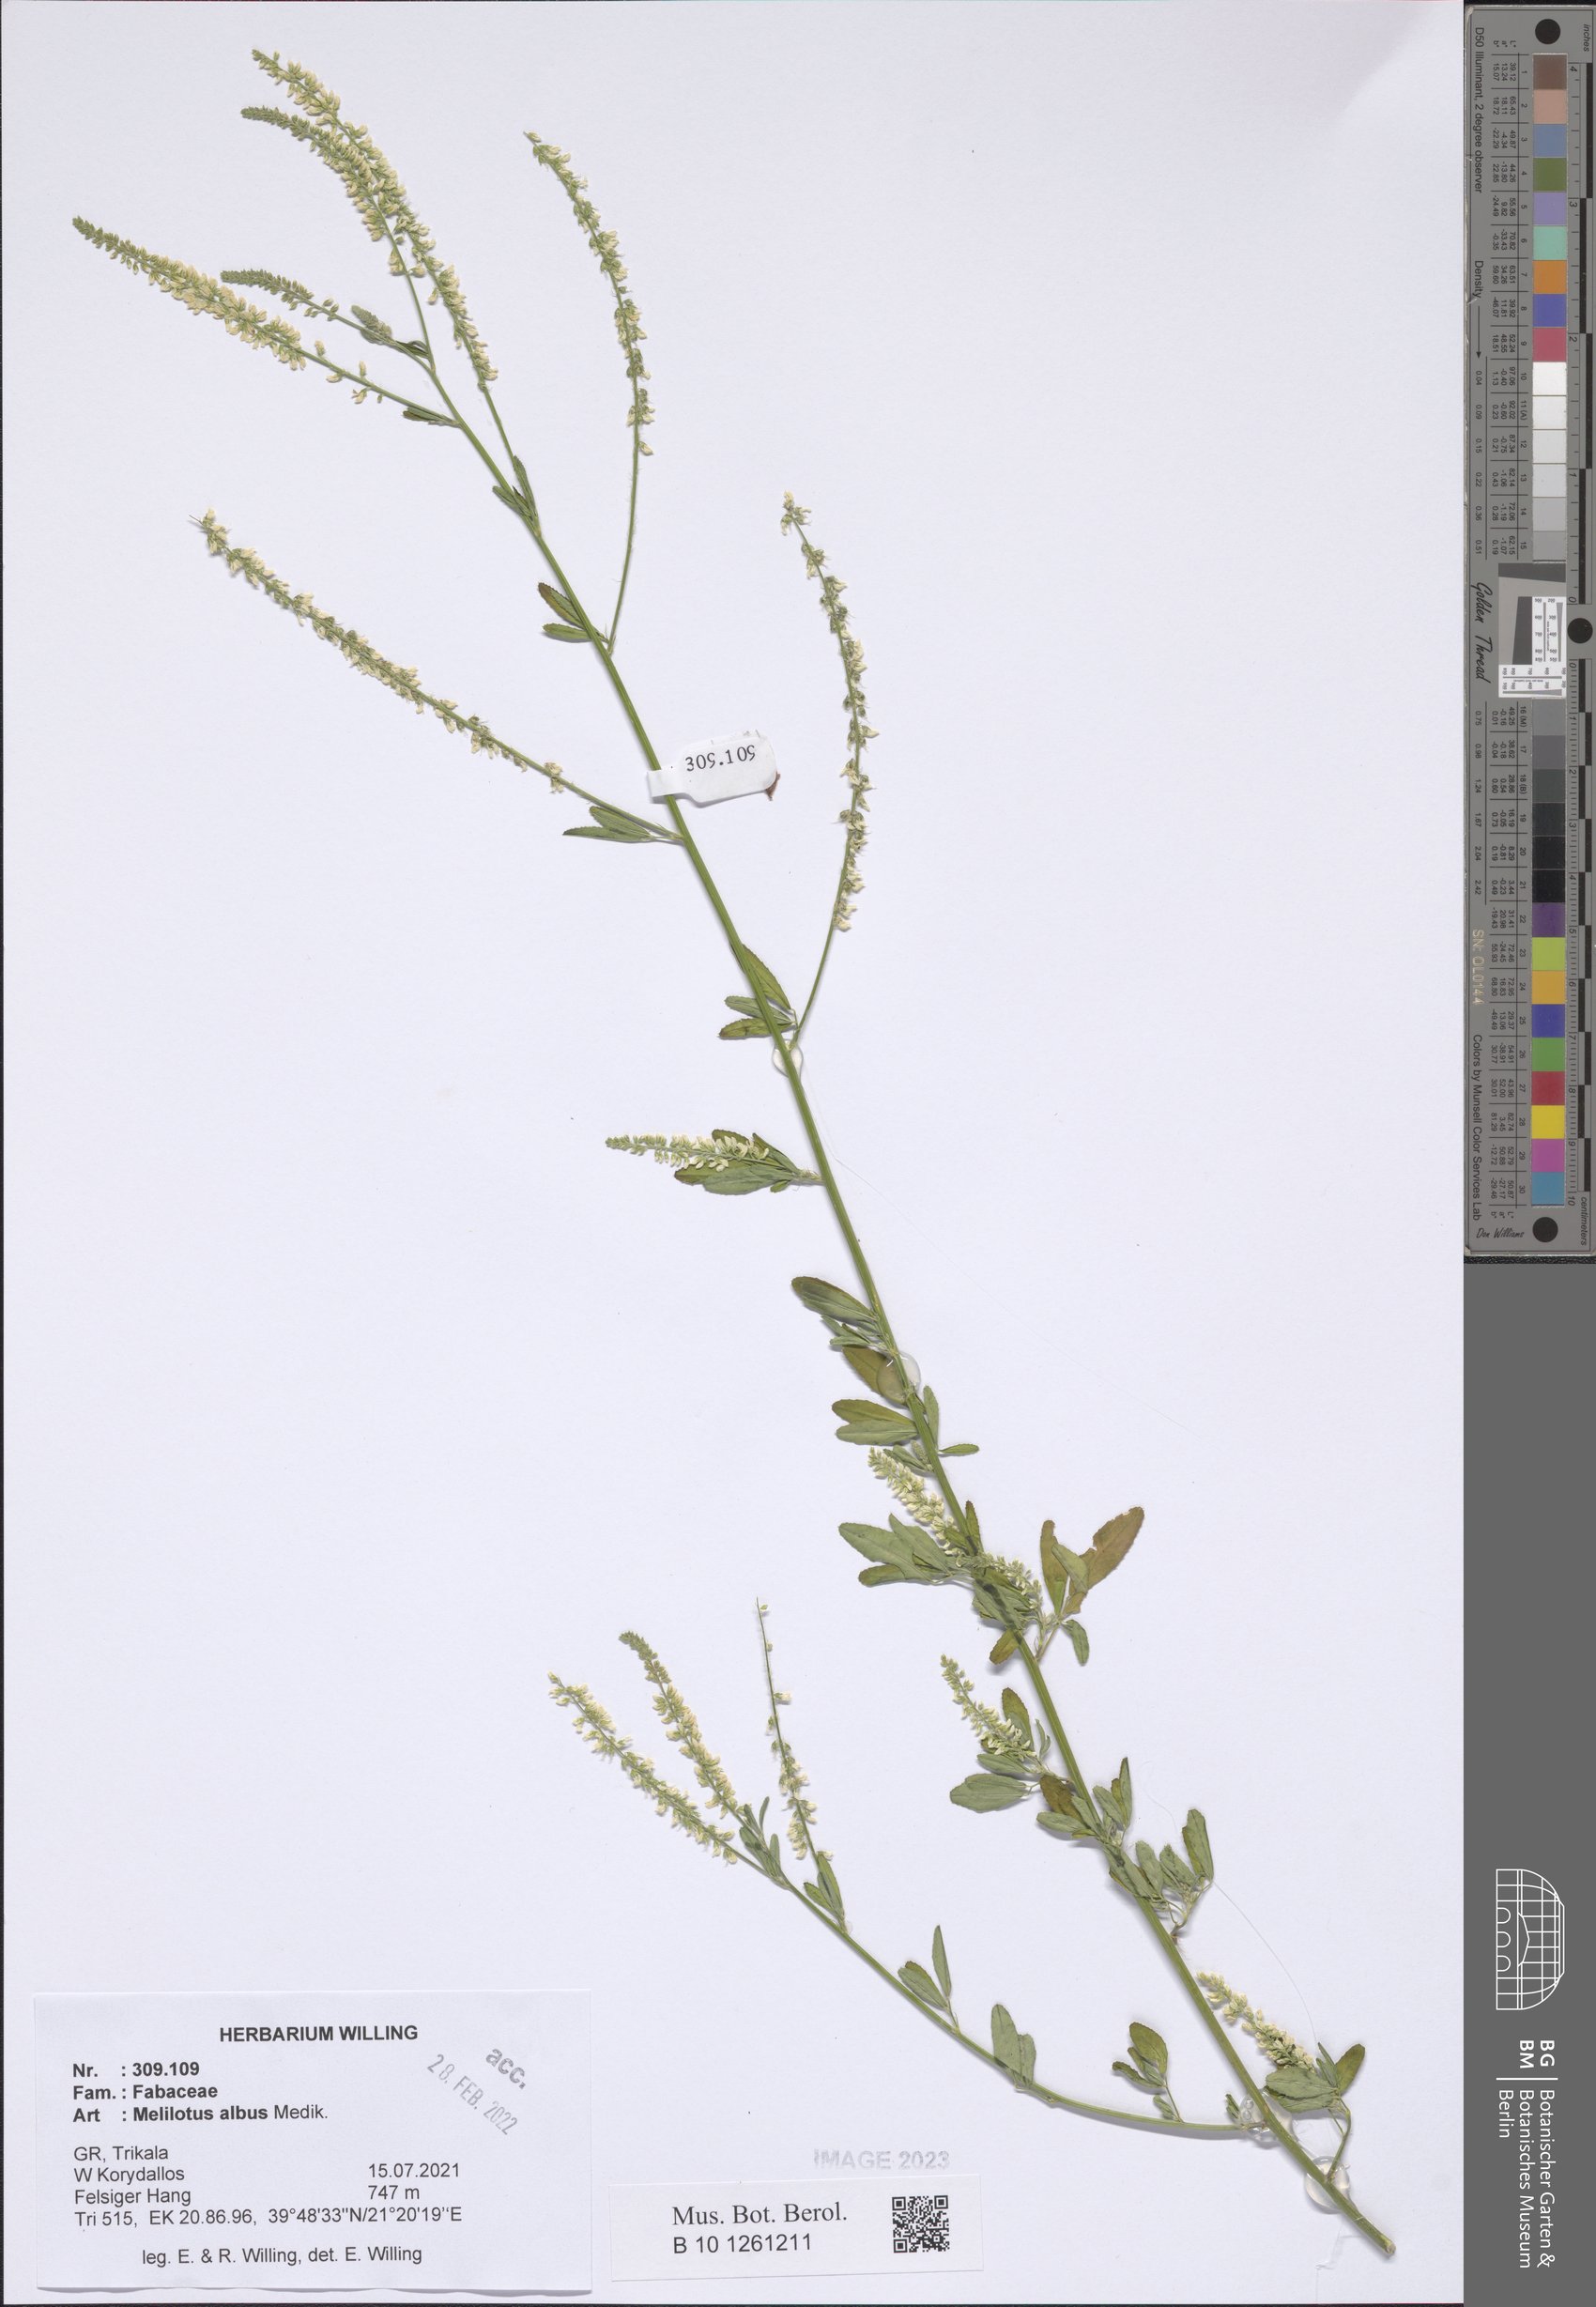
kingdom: Plantae
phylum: Tracheophyta
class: Magnoliopsida
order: Fabales
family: Fabaceae
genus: Melilotus
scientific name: Melilotus albus
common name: White melilot
